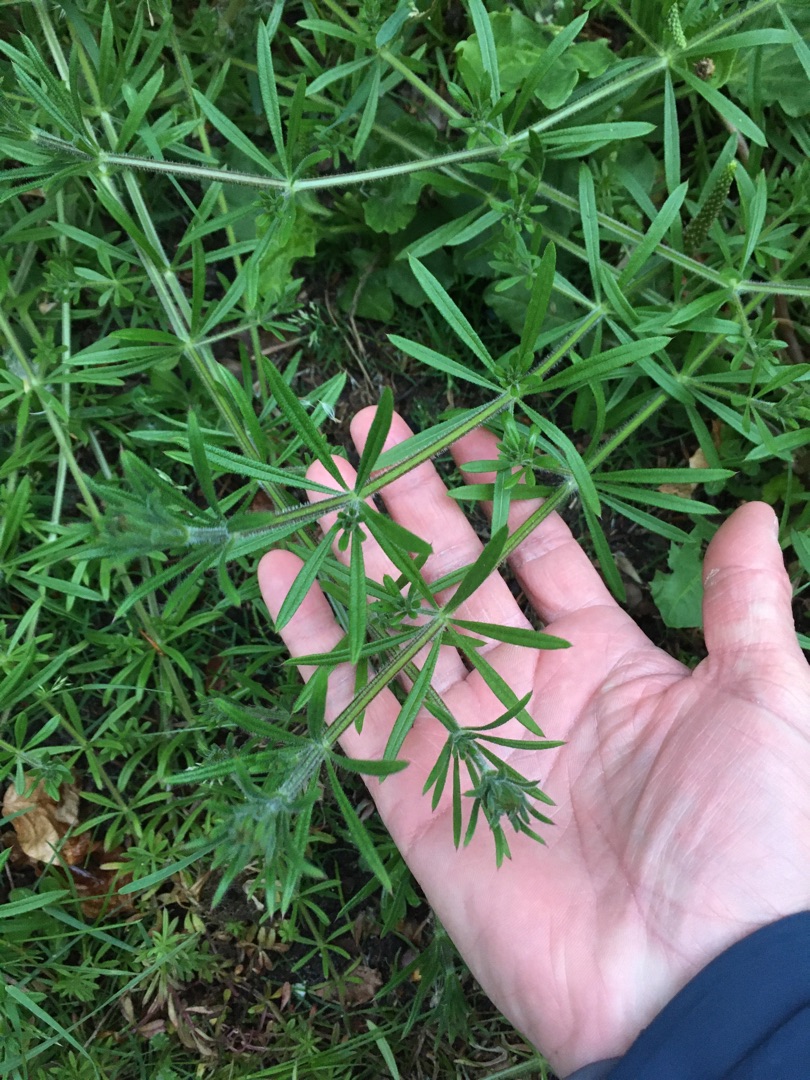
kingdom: Plantae
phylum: Tracheophyta
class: Magnoliopsida
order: Gentianales
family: Rubiaceae
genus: Galium
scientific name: Galium aparine
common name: Burre-snerre
